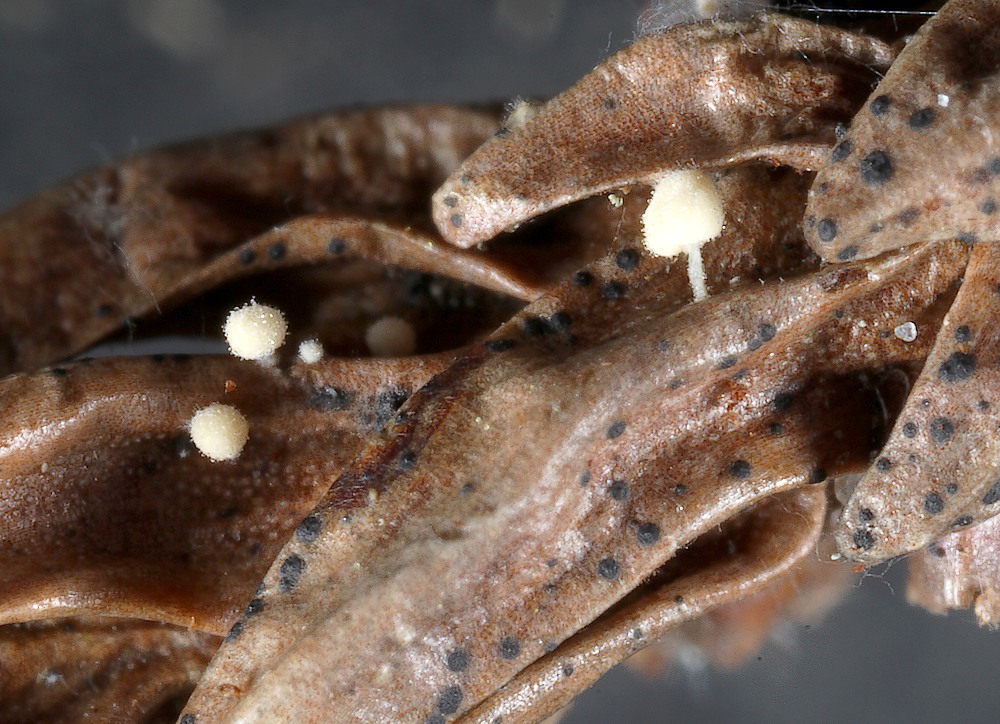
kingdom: Fungi
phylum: Basidiomycota
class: Agaricomycetes
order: Agaricales
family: Physalacriaceae
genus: Physalacria
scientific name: Physalacria cryptomeriae
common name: japangran-boldkølle
